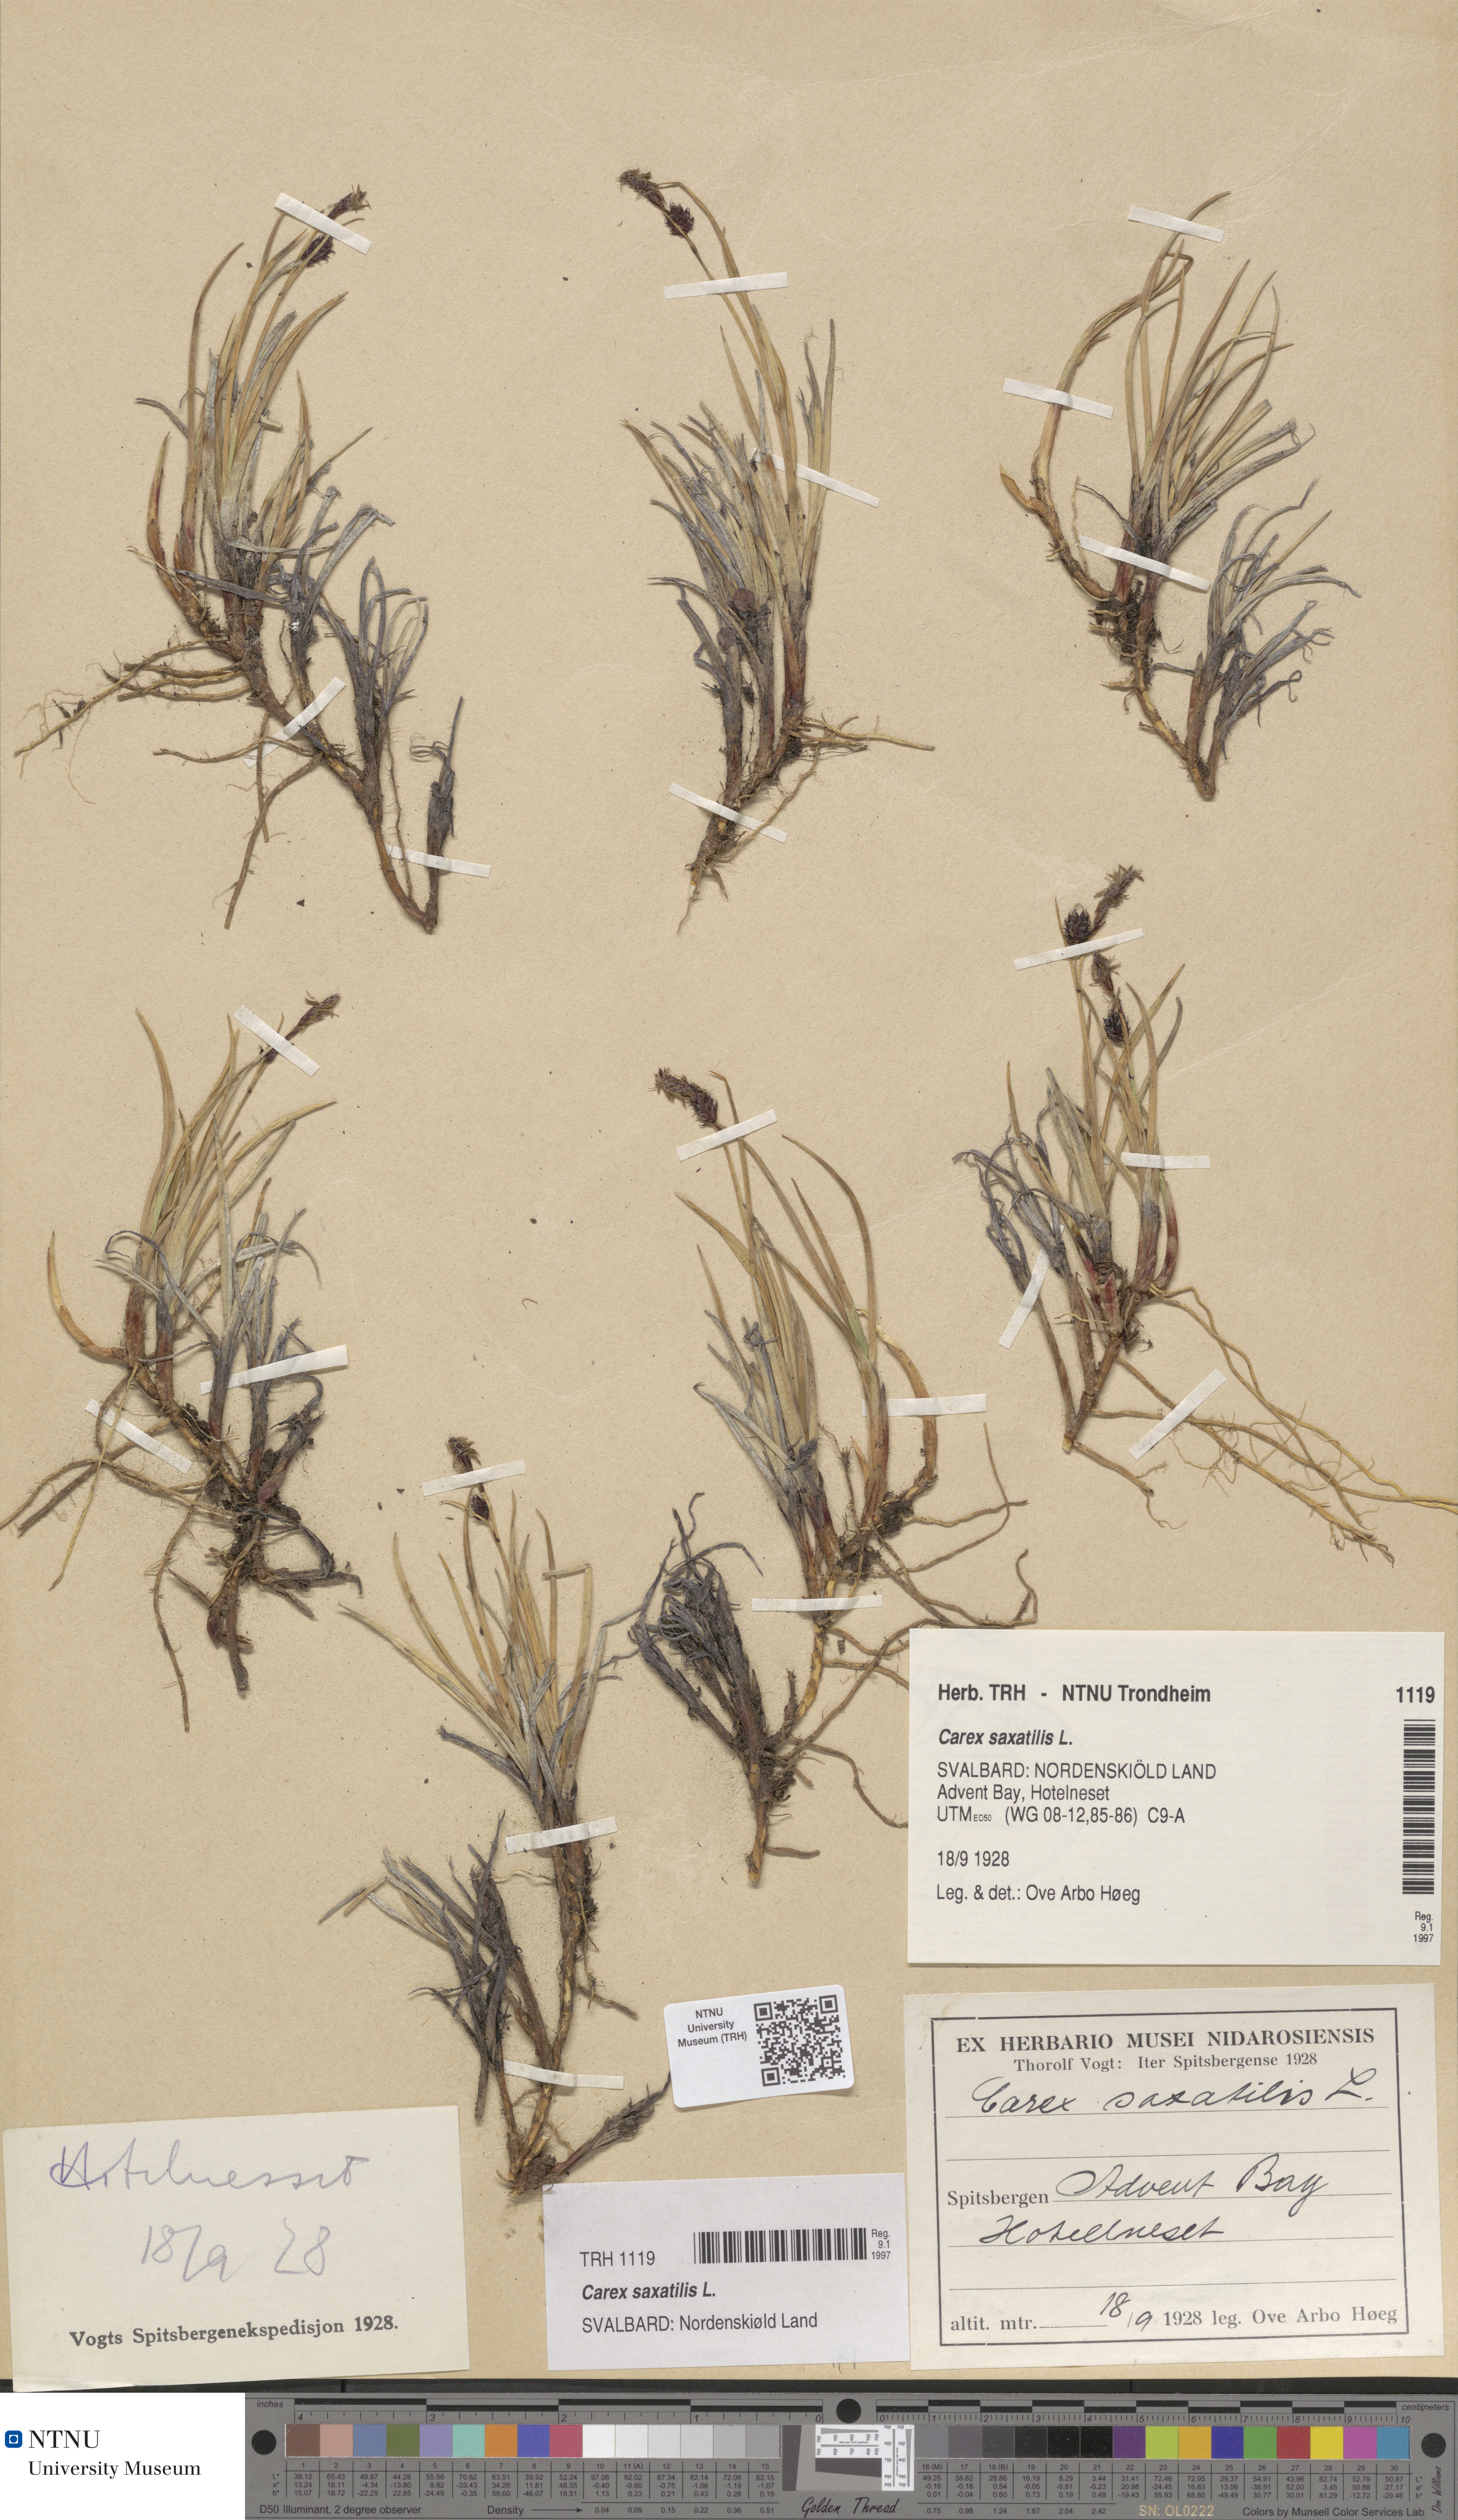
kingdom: Plantae
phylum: Tracheophyta
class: Liliopsida
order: Poales
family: Cyperaceae
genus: Carex
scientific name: Carex saxatilis
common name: Russet sedge
